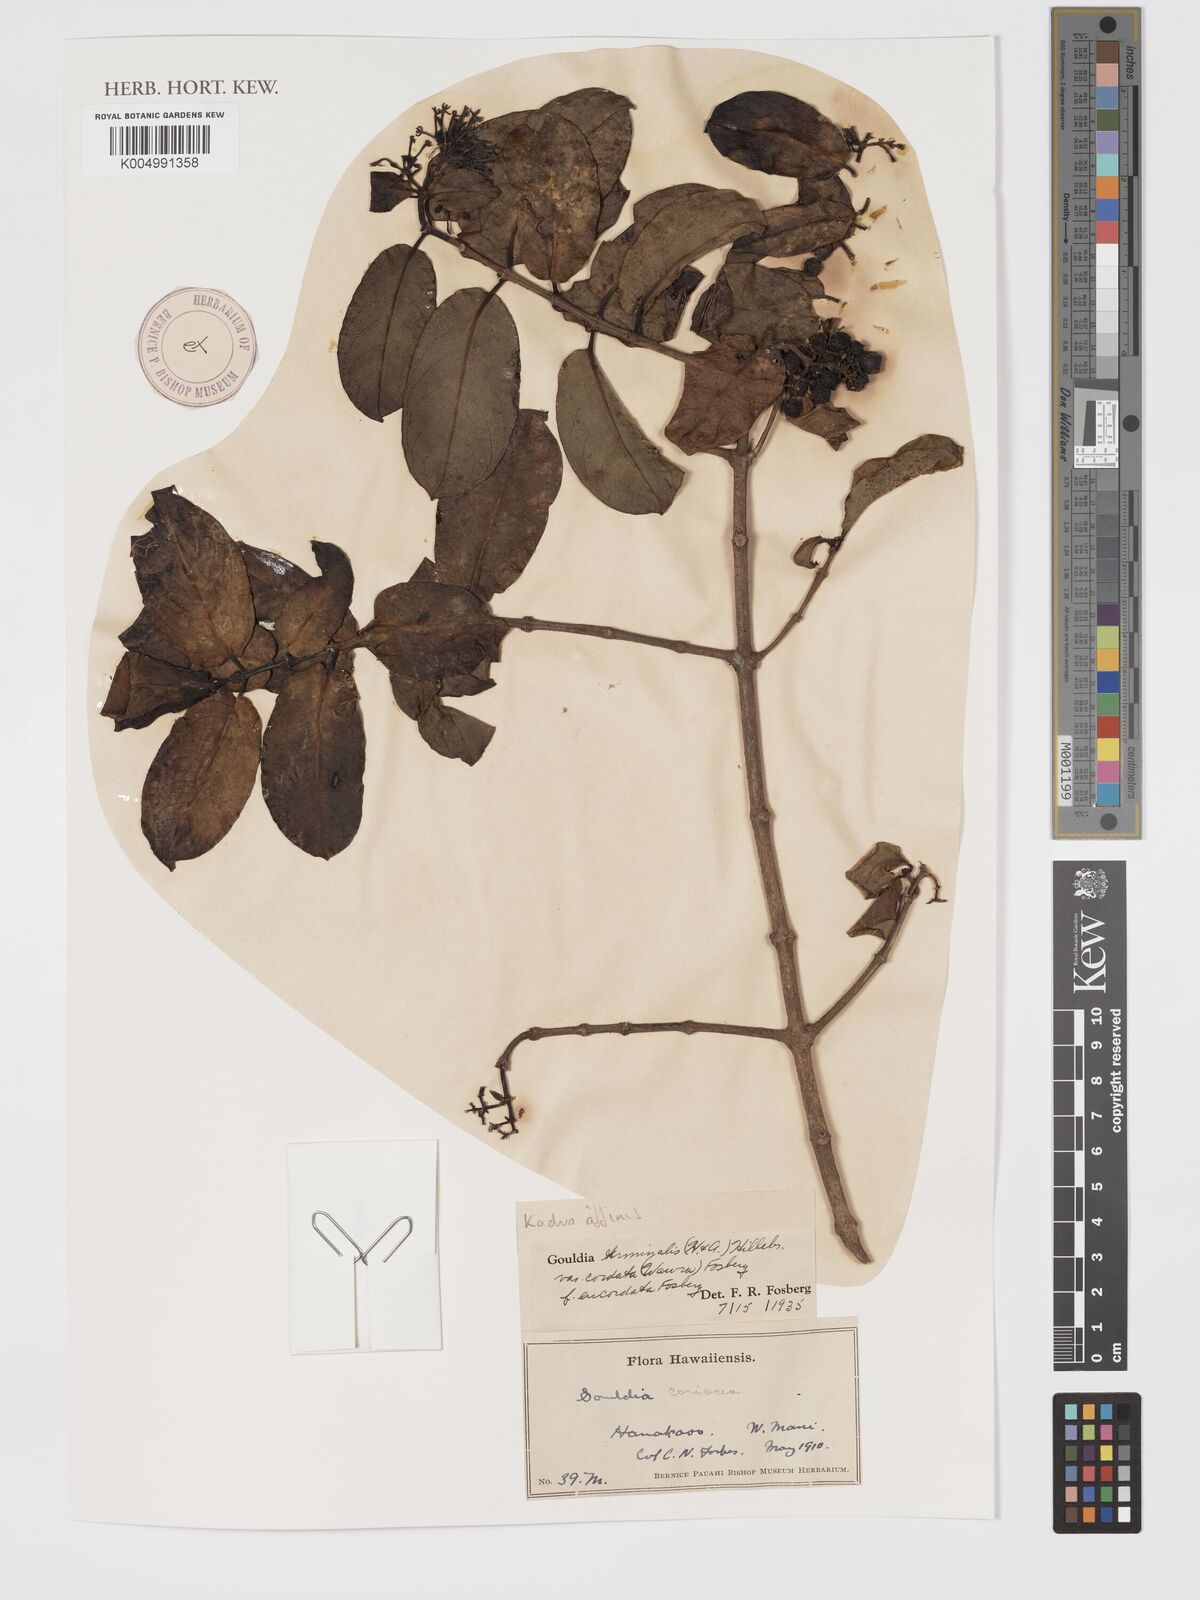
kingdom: Plantae
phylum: Tracheophyta
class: Magnoliopsida
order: Gentianales
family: Rubiaceae
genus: Kadua
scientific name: Kadua affinis
